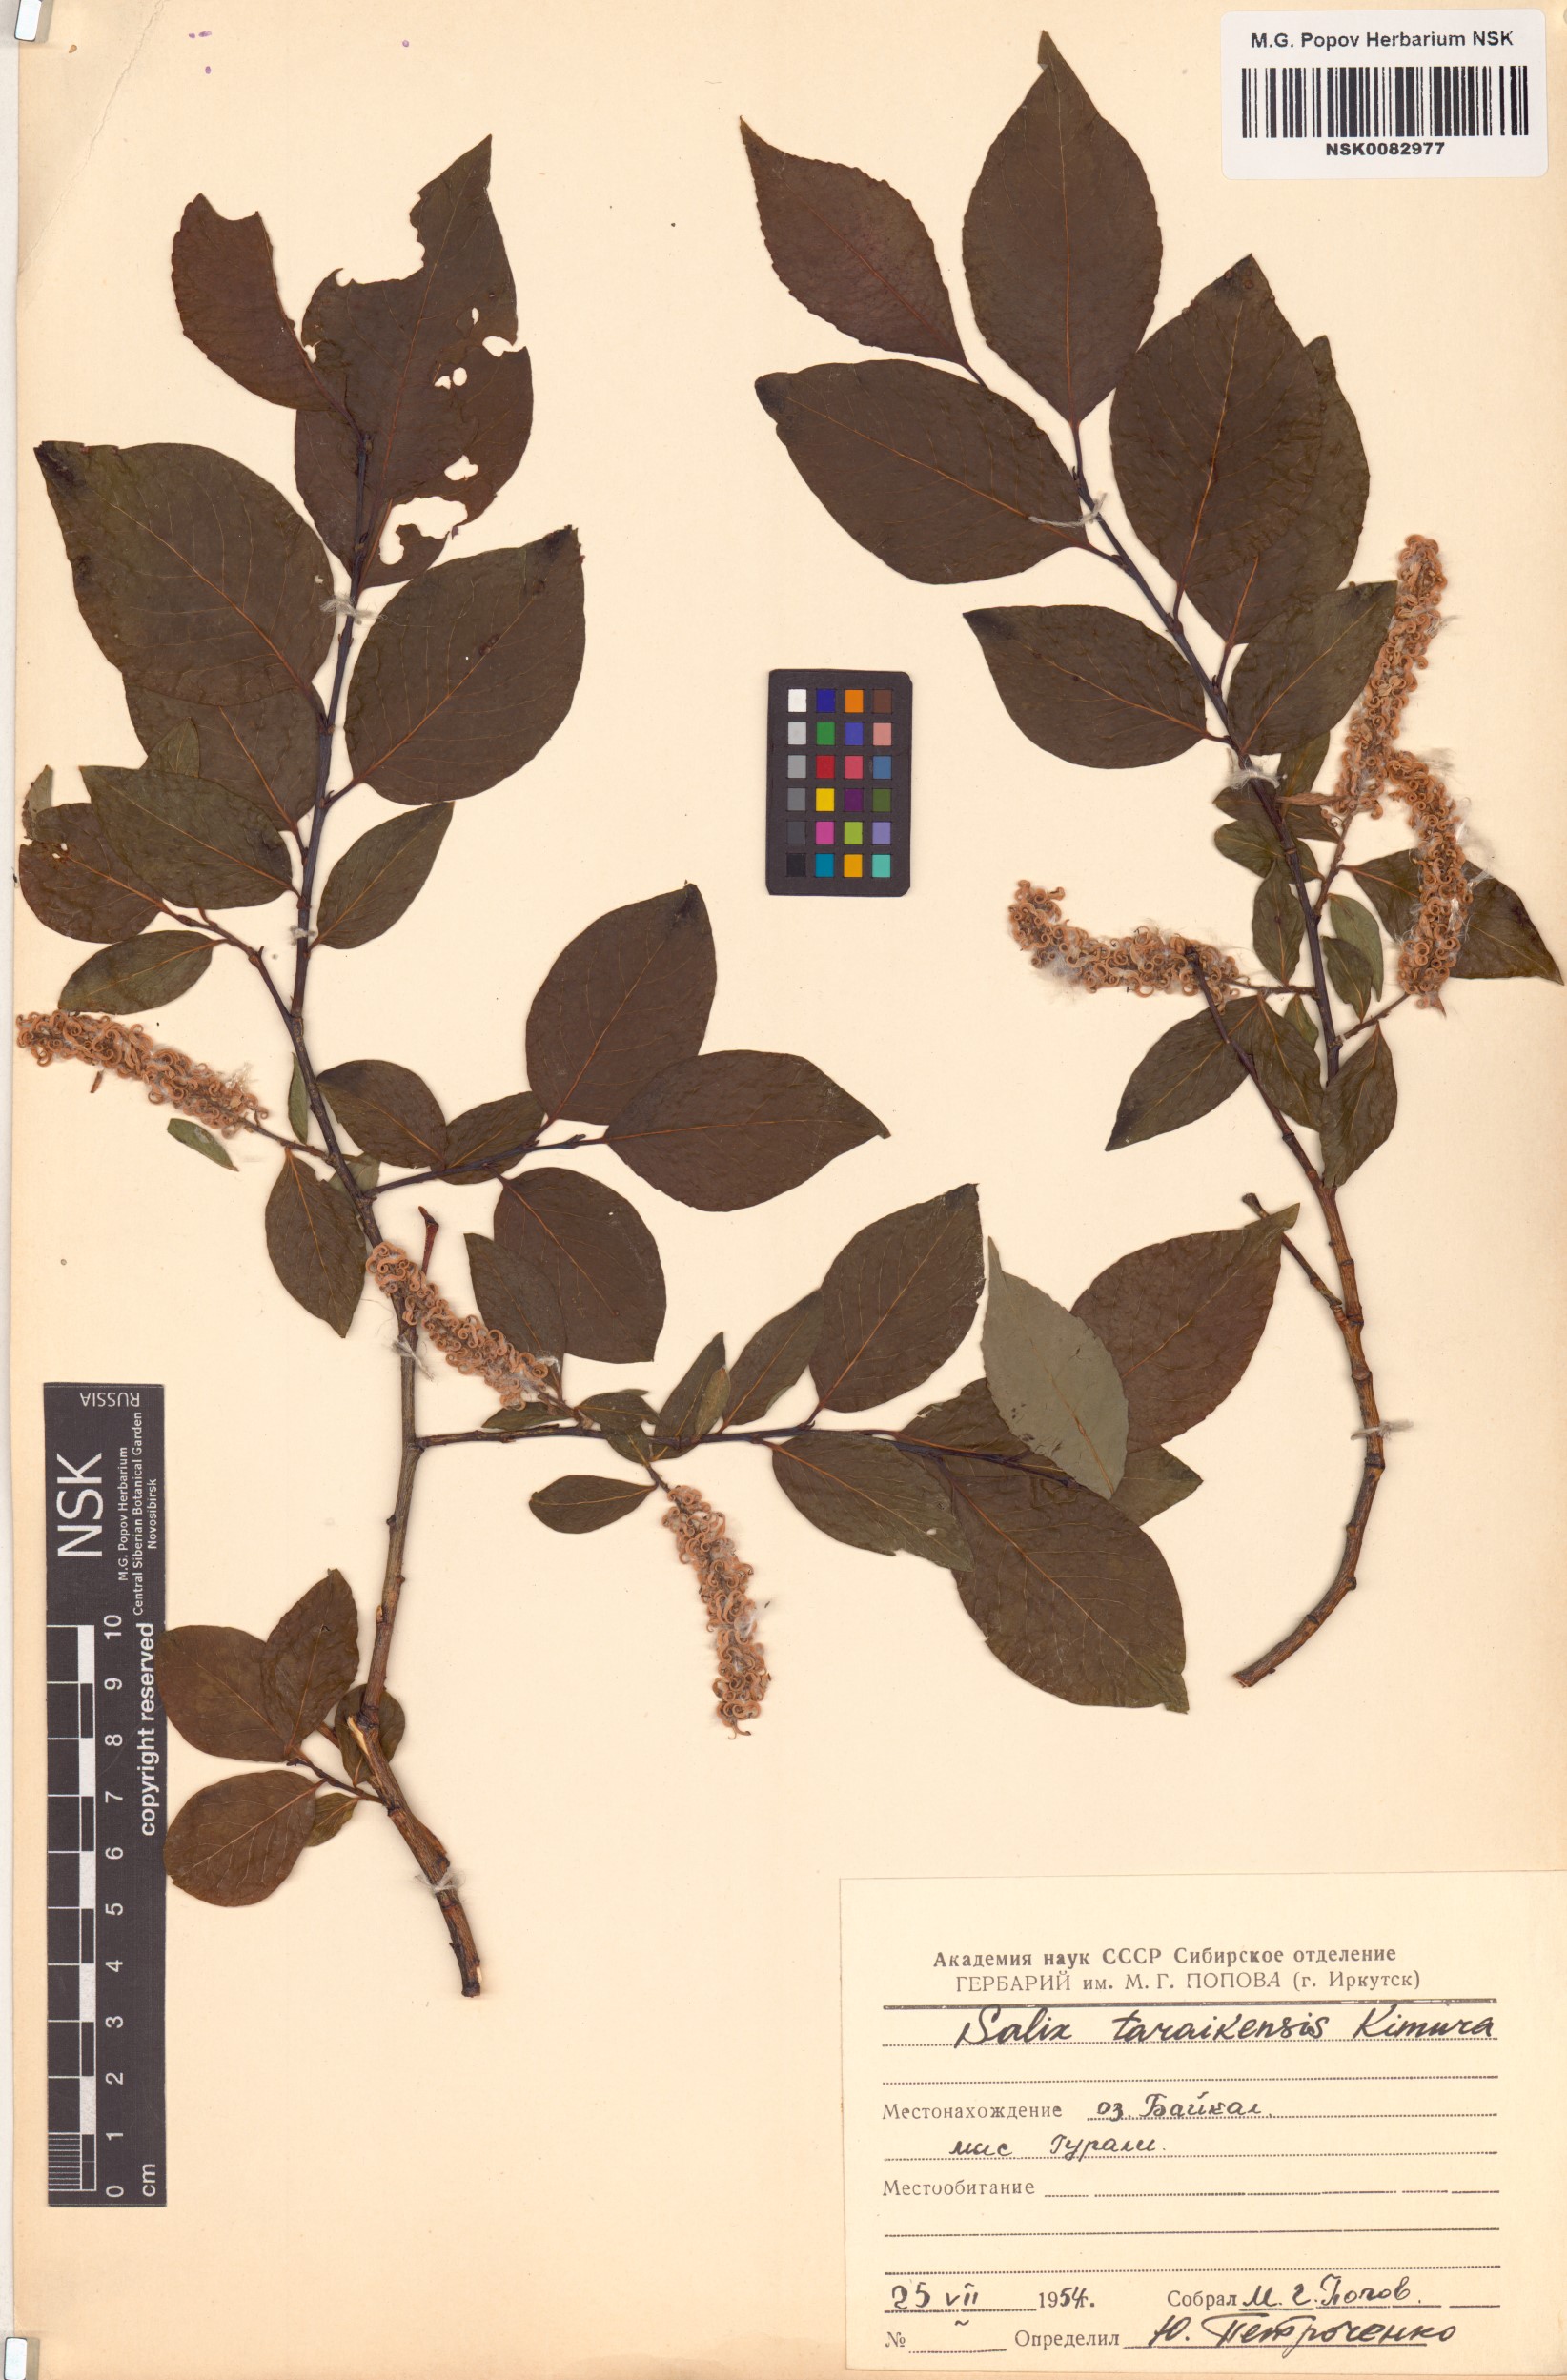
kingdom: Plantae
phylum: Tracheophyta
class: Magnoliopsida
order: Malpighiales
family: Salicaceae
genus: Salix
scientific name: Salix taraikensis
